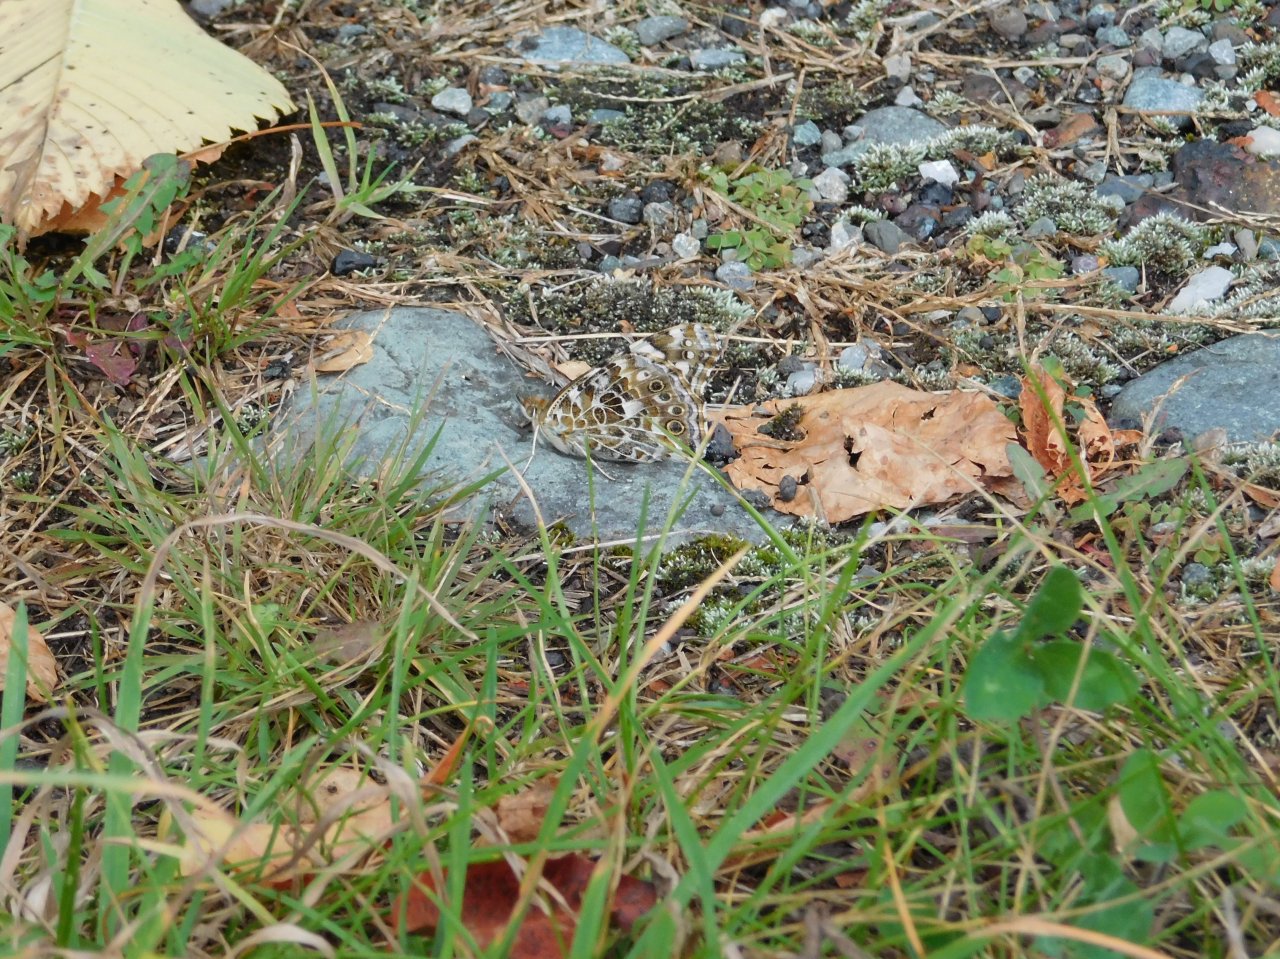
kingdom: Animalia
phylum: Arthropoda
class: Insecta
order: Lepidoptera
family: Nymphalidae
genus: Vanessa
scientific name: Vanessa cardui
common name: Painted Lady
